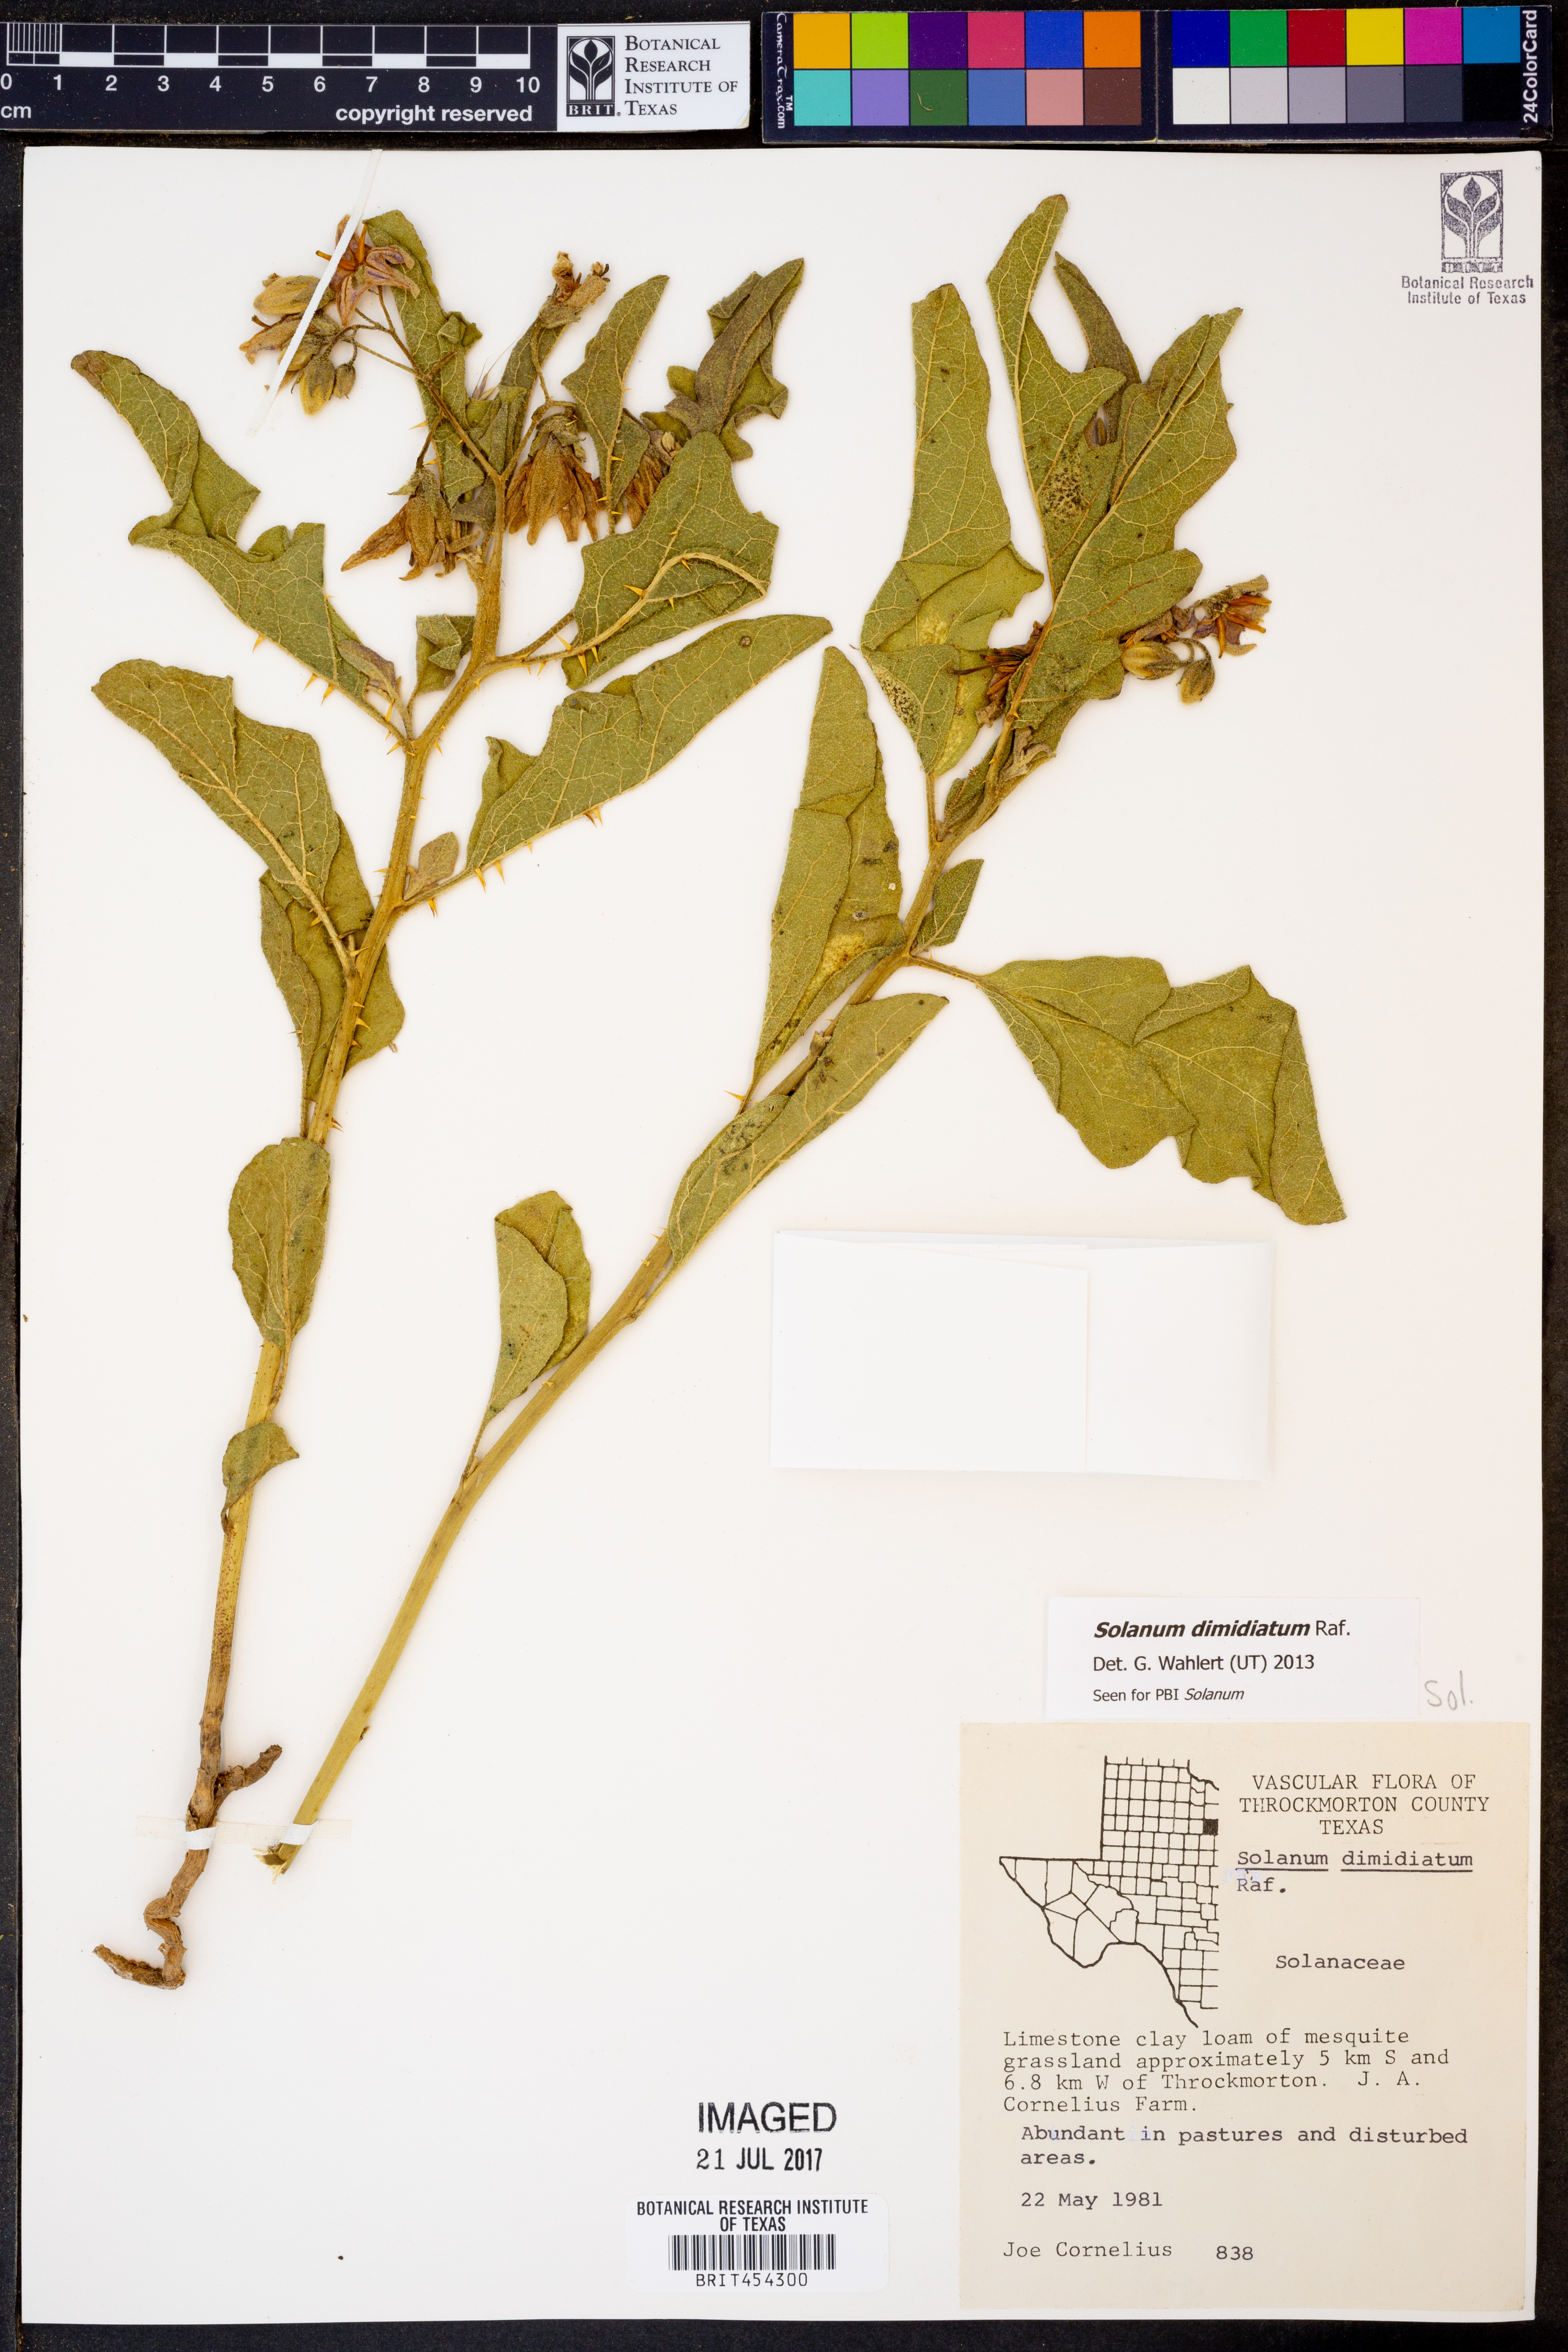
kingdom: Plantae
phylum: Tracheophyta
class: Magnoliopsida
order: Solanales
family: Solanaceae
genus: Solanum
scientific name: Solanum dimidiatum
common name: Carolina horse-nettle
